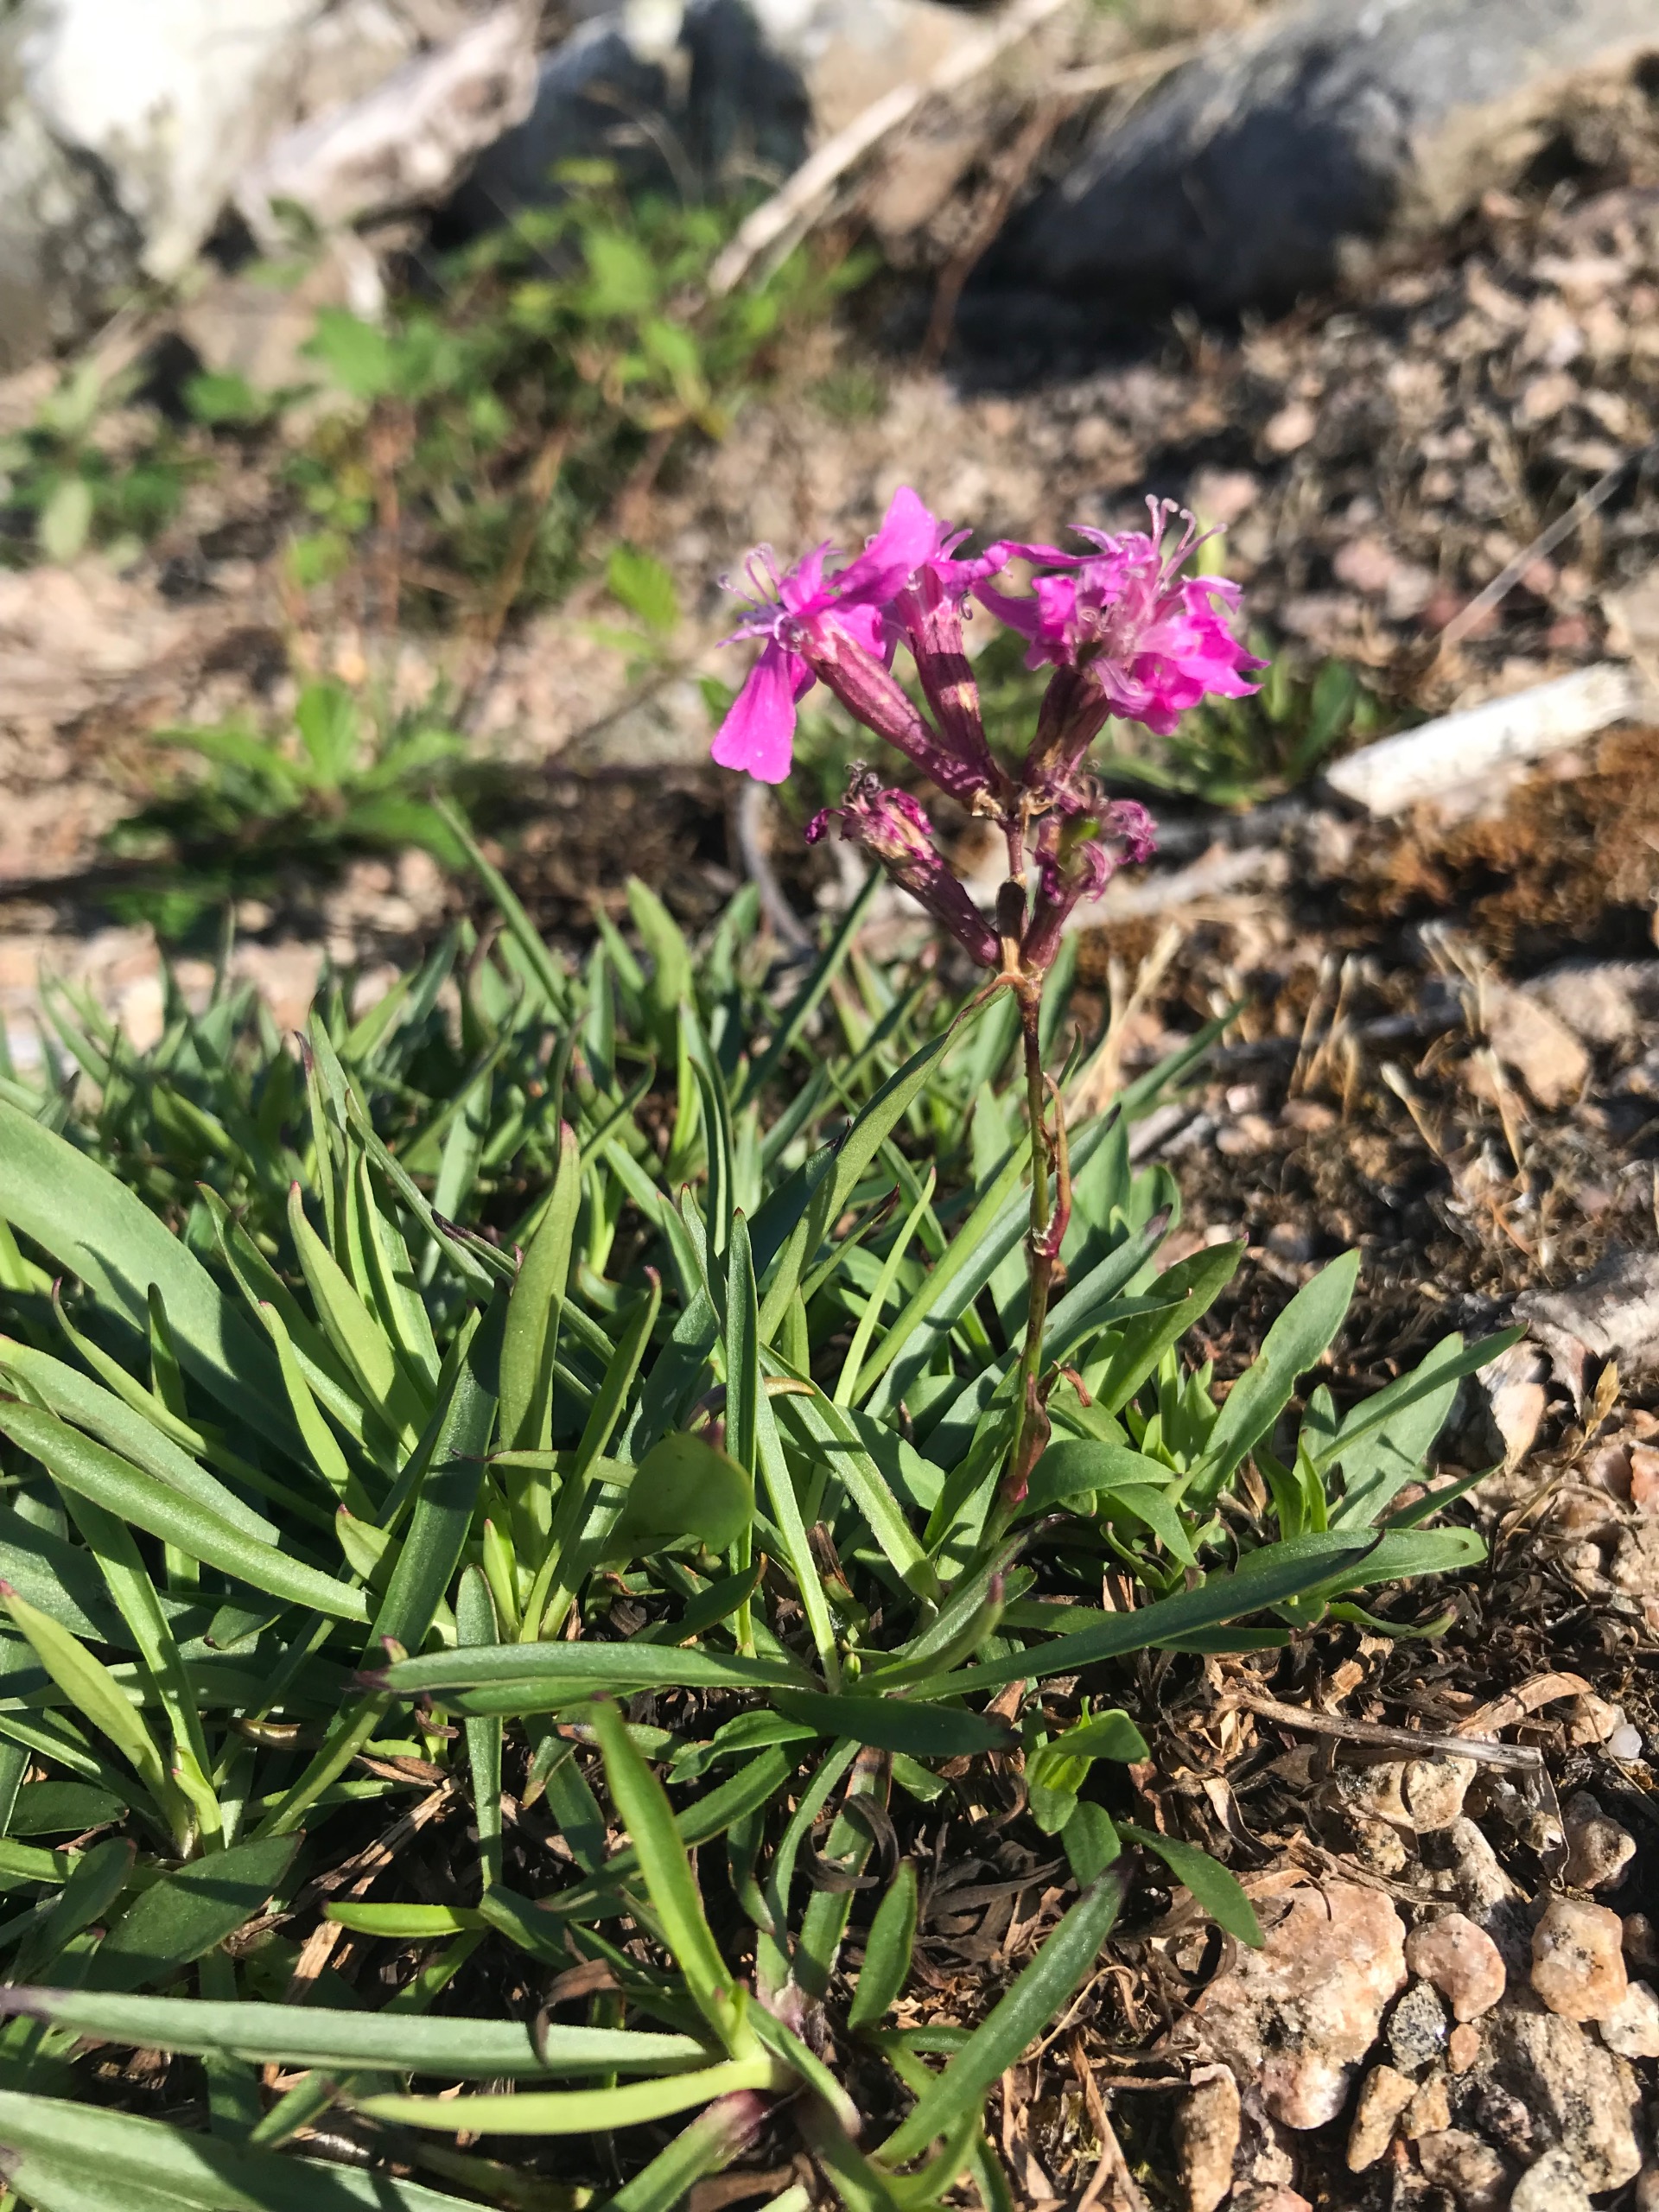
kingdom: Plantae
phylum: Tracheophyta
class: Magnoliopsida
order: Caryophyllales
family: Caryophyllaceae
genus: Viscaria
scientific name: Viscaria vulgaris
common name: Tjærenellike
